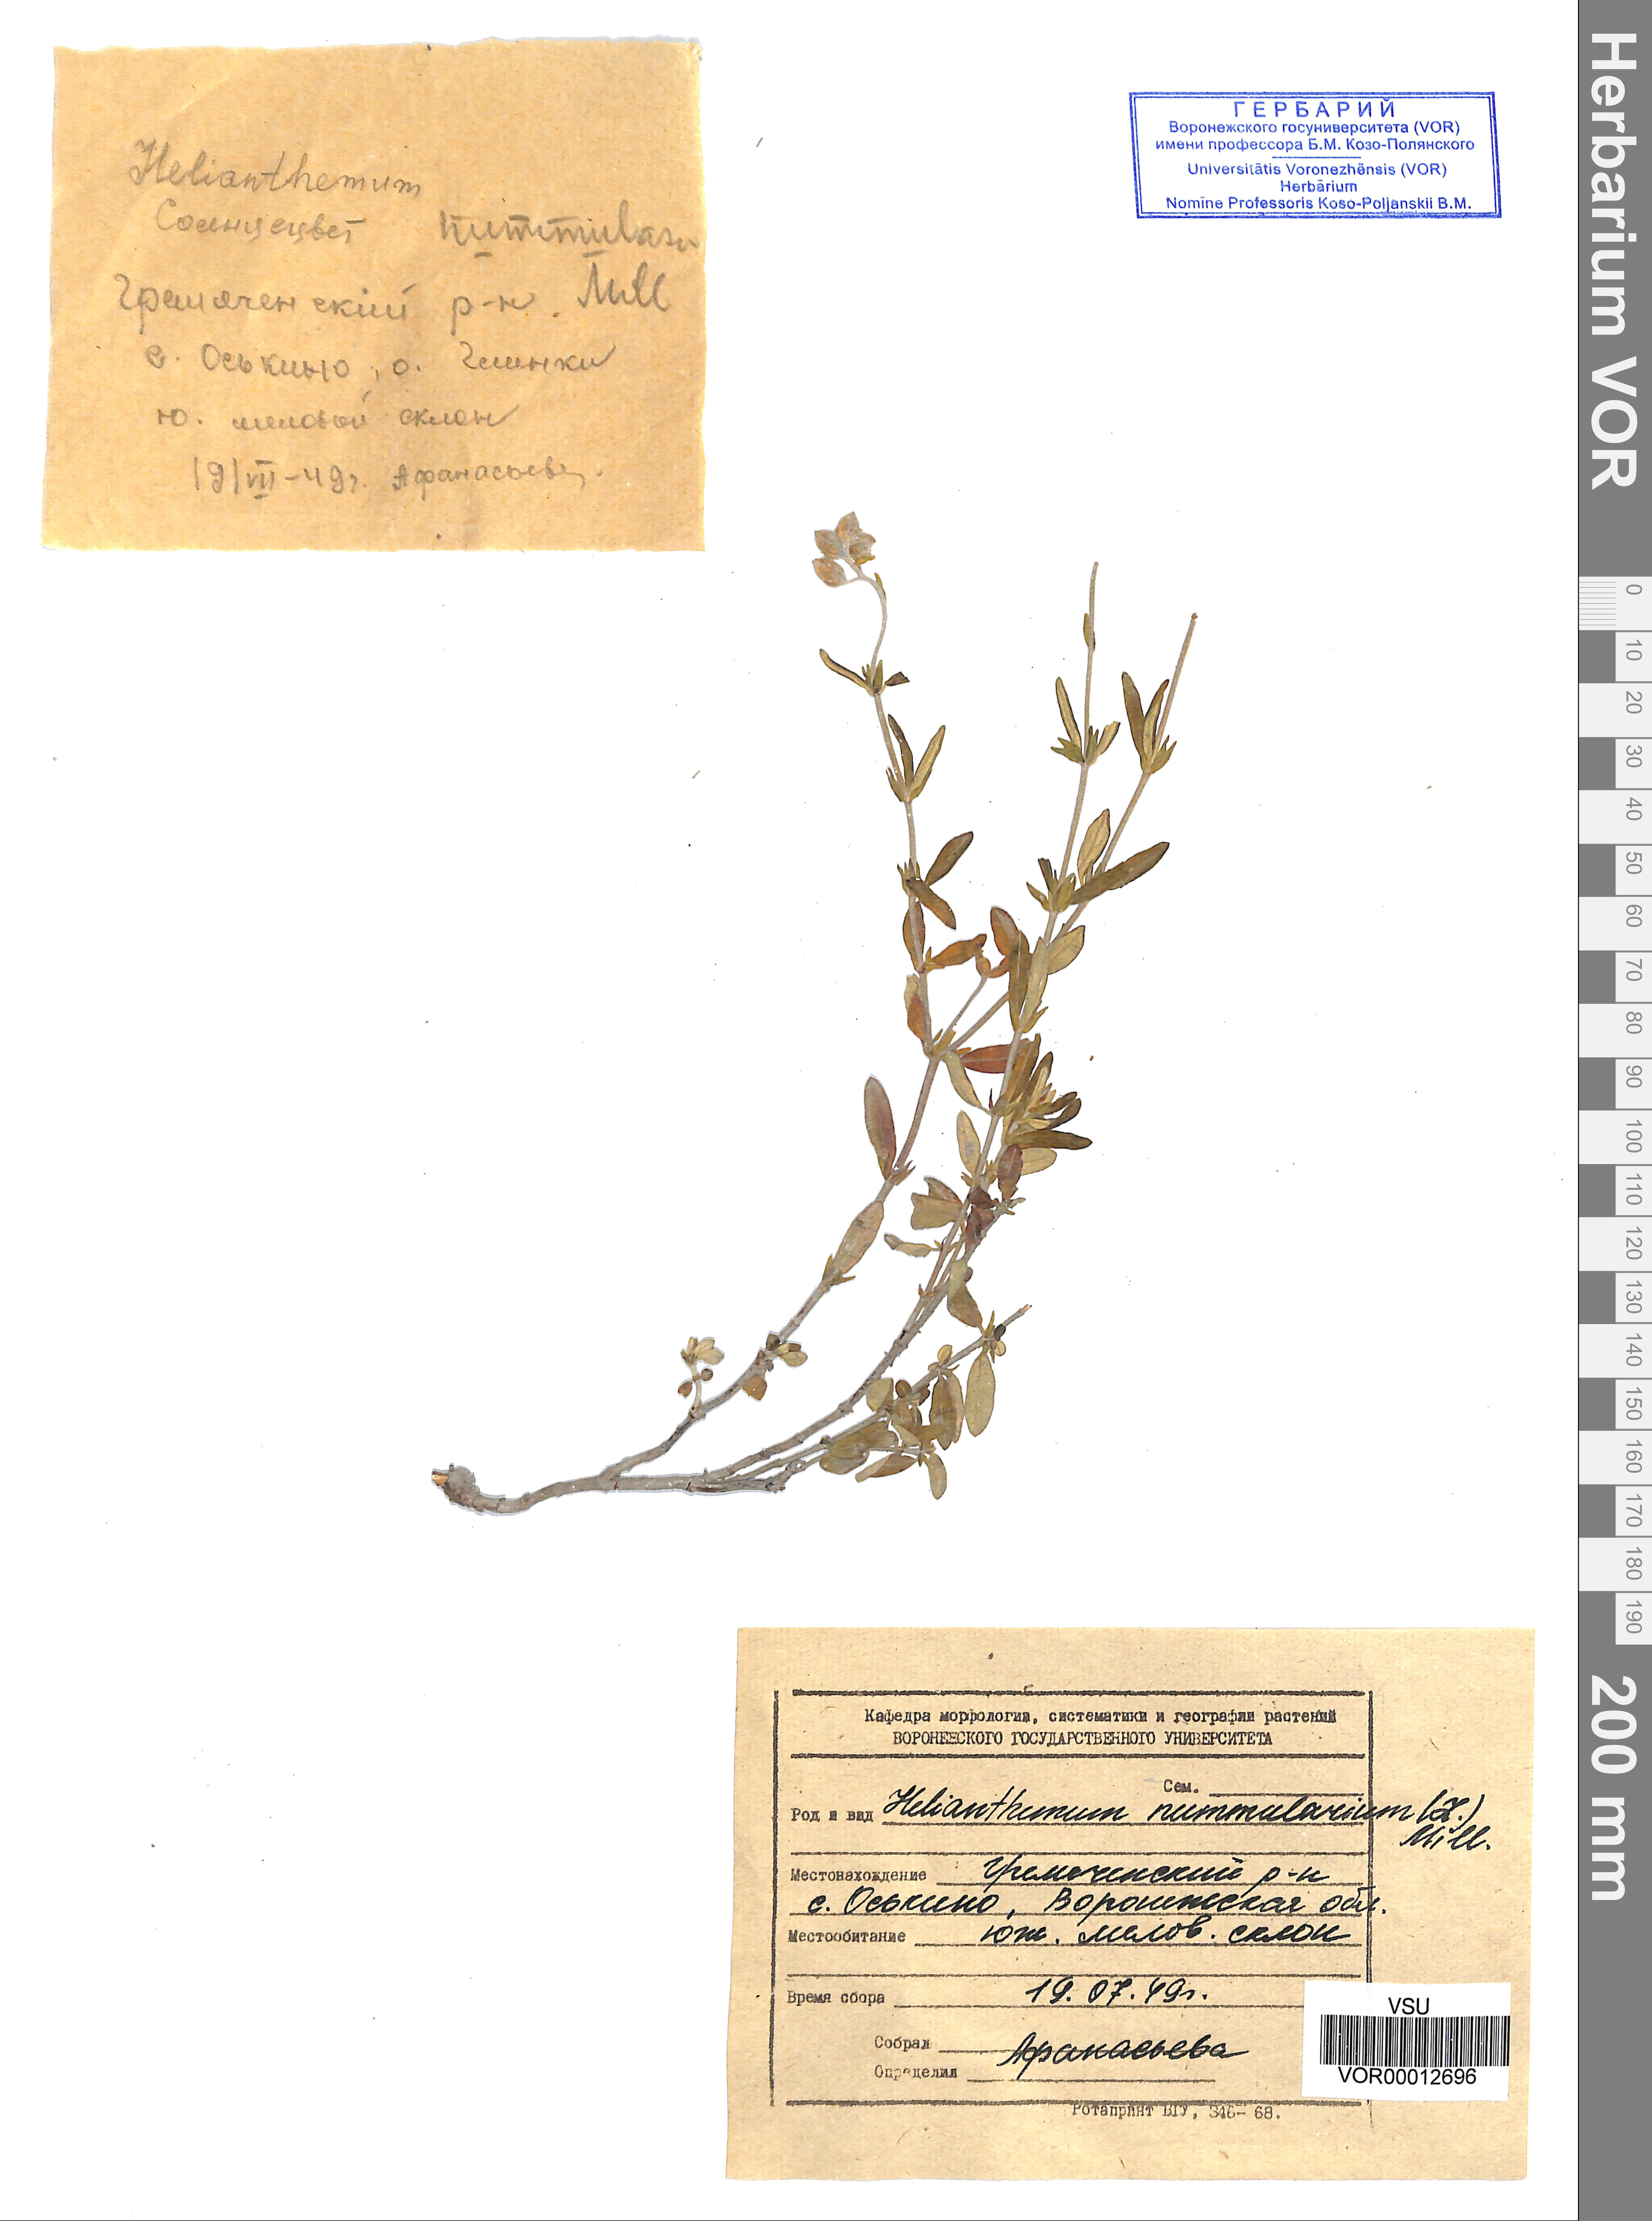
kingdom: Plantae
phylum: Tracheophyta
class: Magnoliopsida
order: Malvales
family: Cistaceae
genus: Helianthemum
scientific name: Helianthemum nummularium
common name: Common rock-rose
